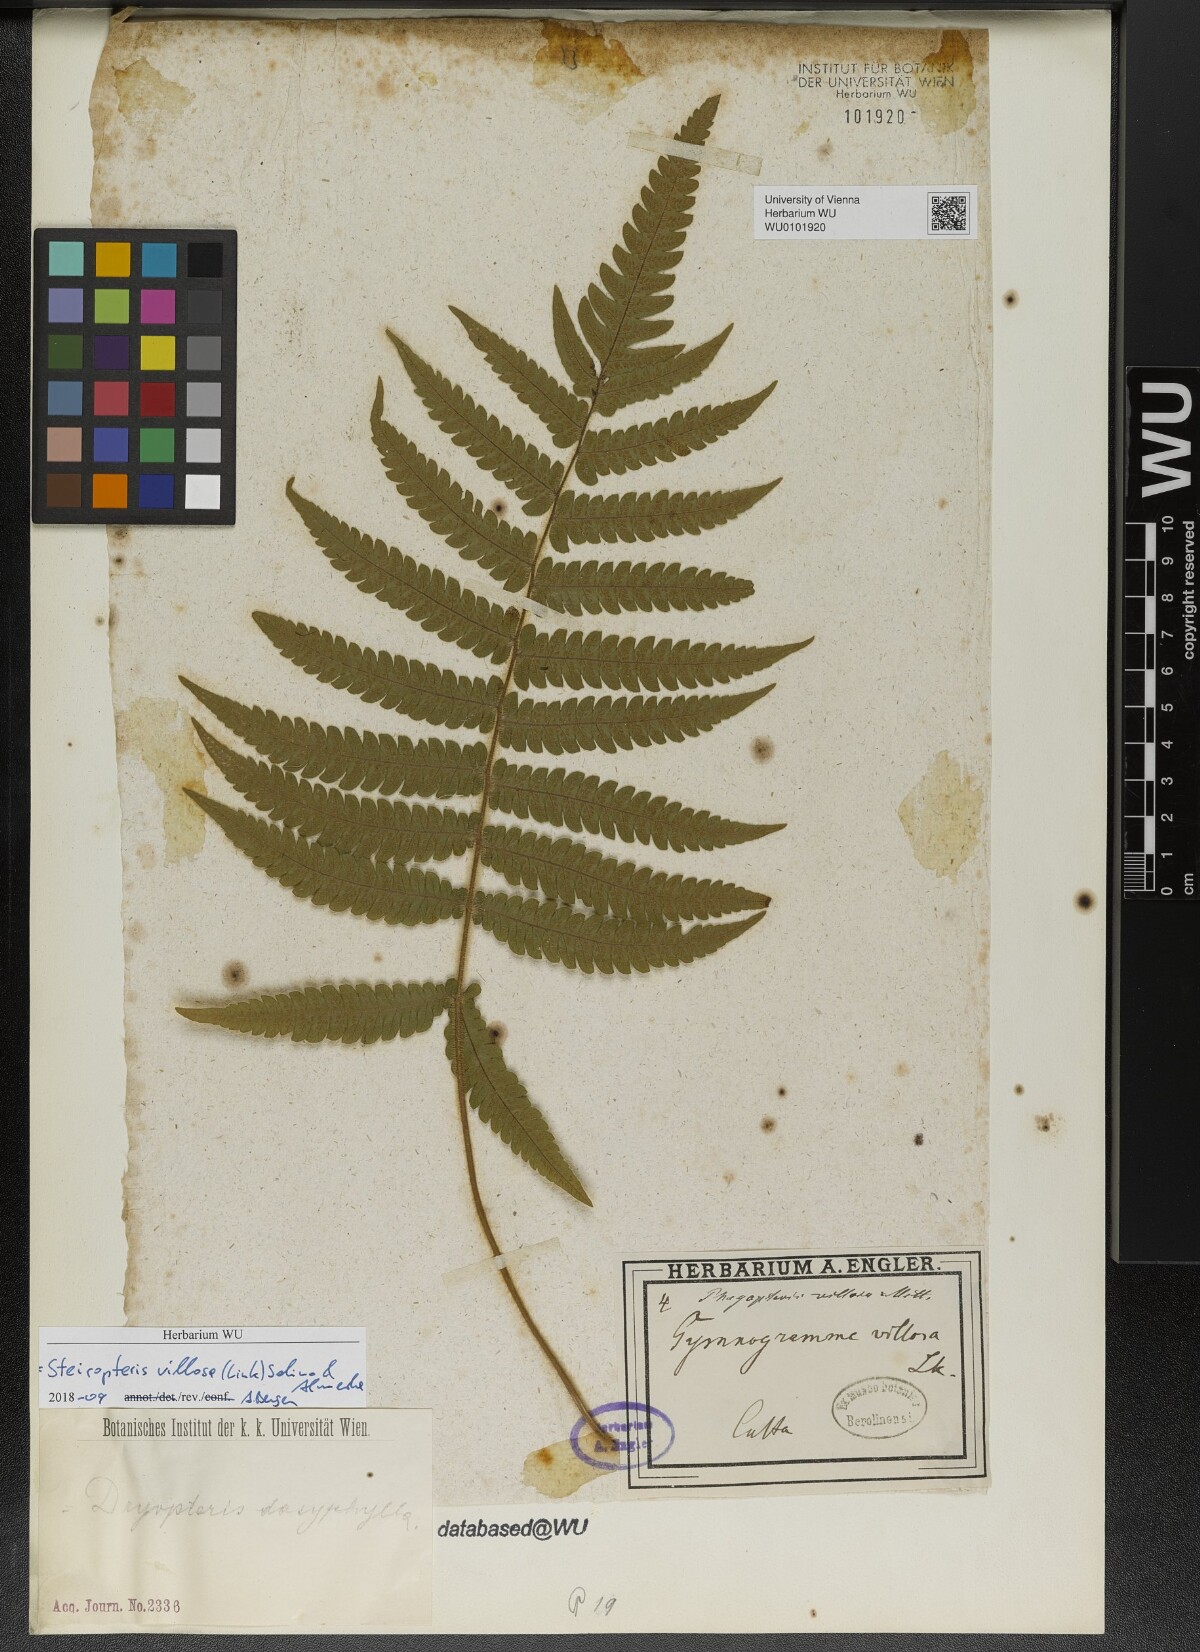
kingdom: Plantae
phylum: Tracheophyta
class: Polypodiopsida
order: Polypodiales
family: Thelypteridaceae
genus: Steiropteris
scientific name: Steiropteris villosa
